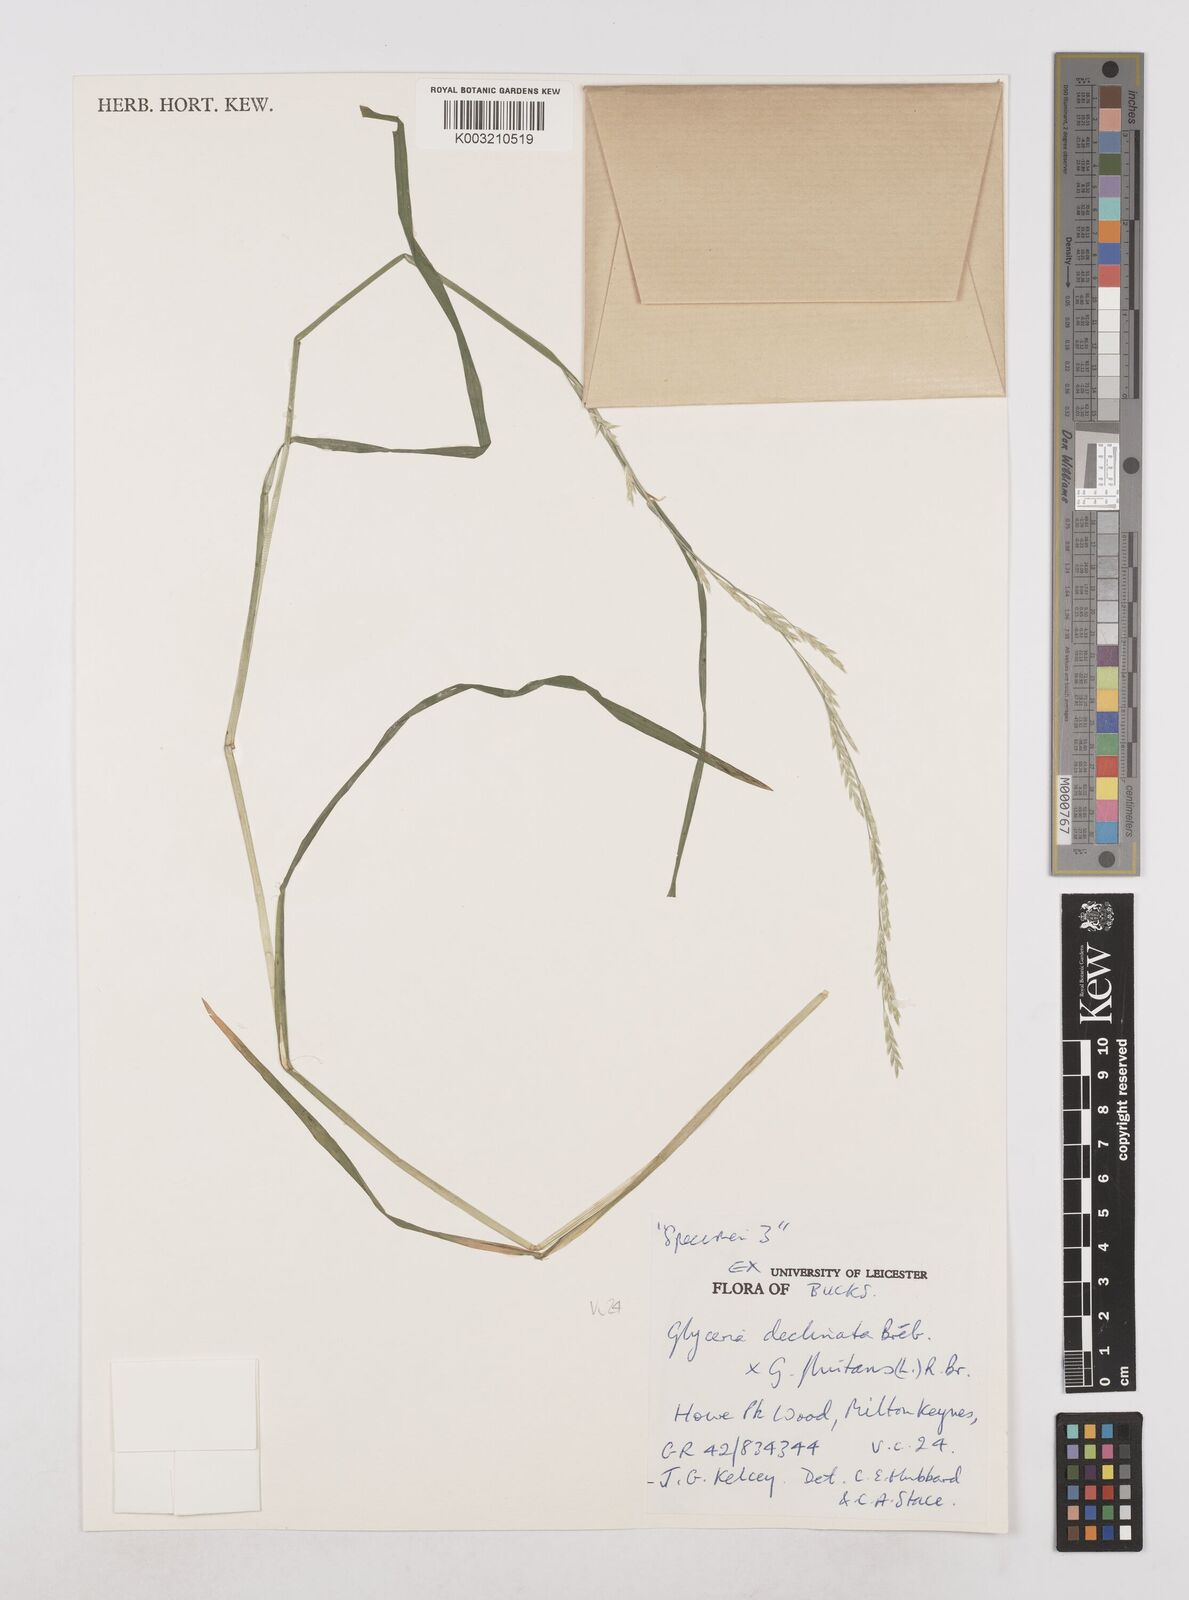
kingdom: Plantae
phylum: Tracheophyta
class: Liliopsida
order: Poales
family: Poaceae
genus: Glyceria
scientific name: Glyceria declinata
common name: Small sweet-grass
